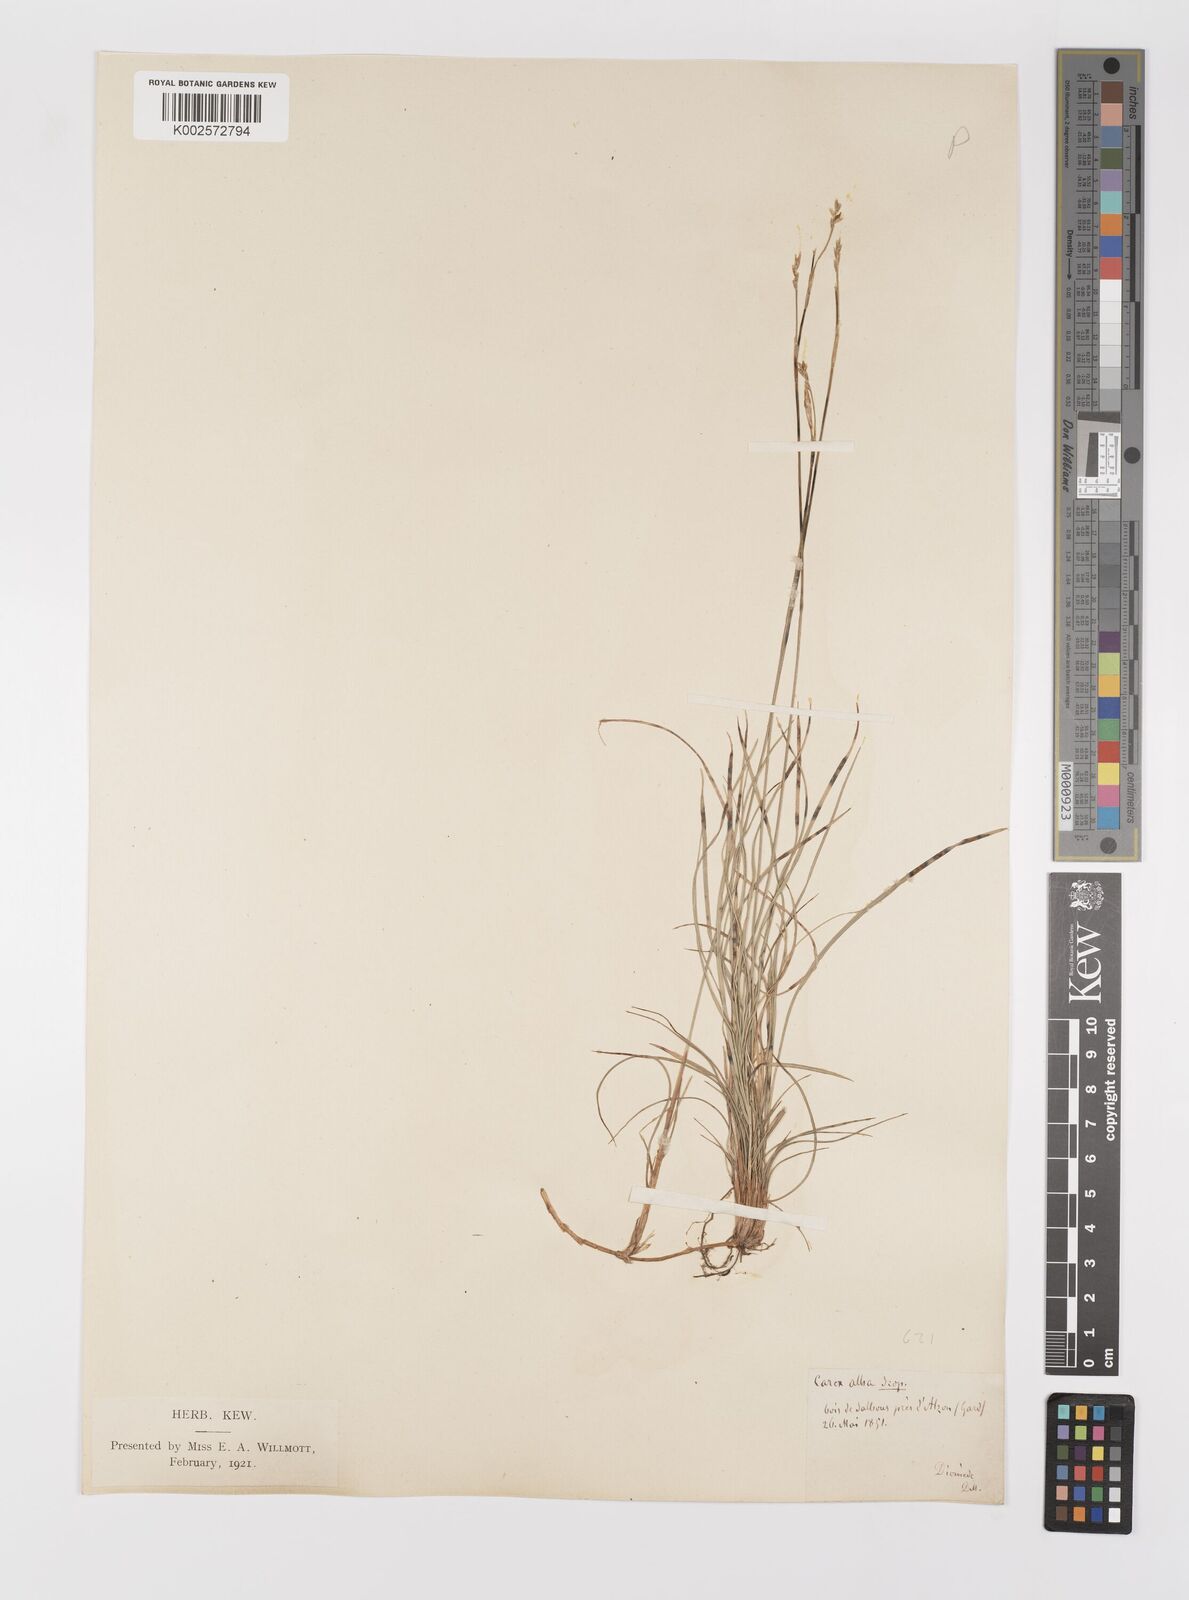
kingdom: Plantae
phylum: Tracheophyta
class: Liliopsida
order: Poales
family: Cyperaceae
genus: Carex
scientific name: Carex alba
